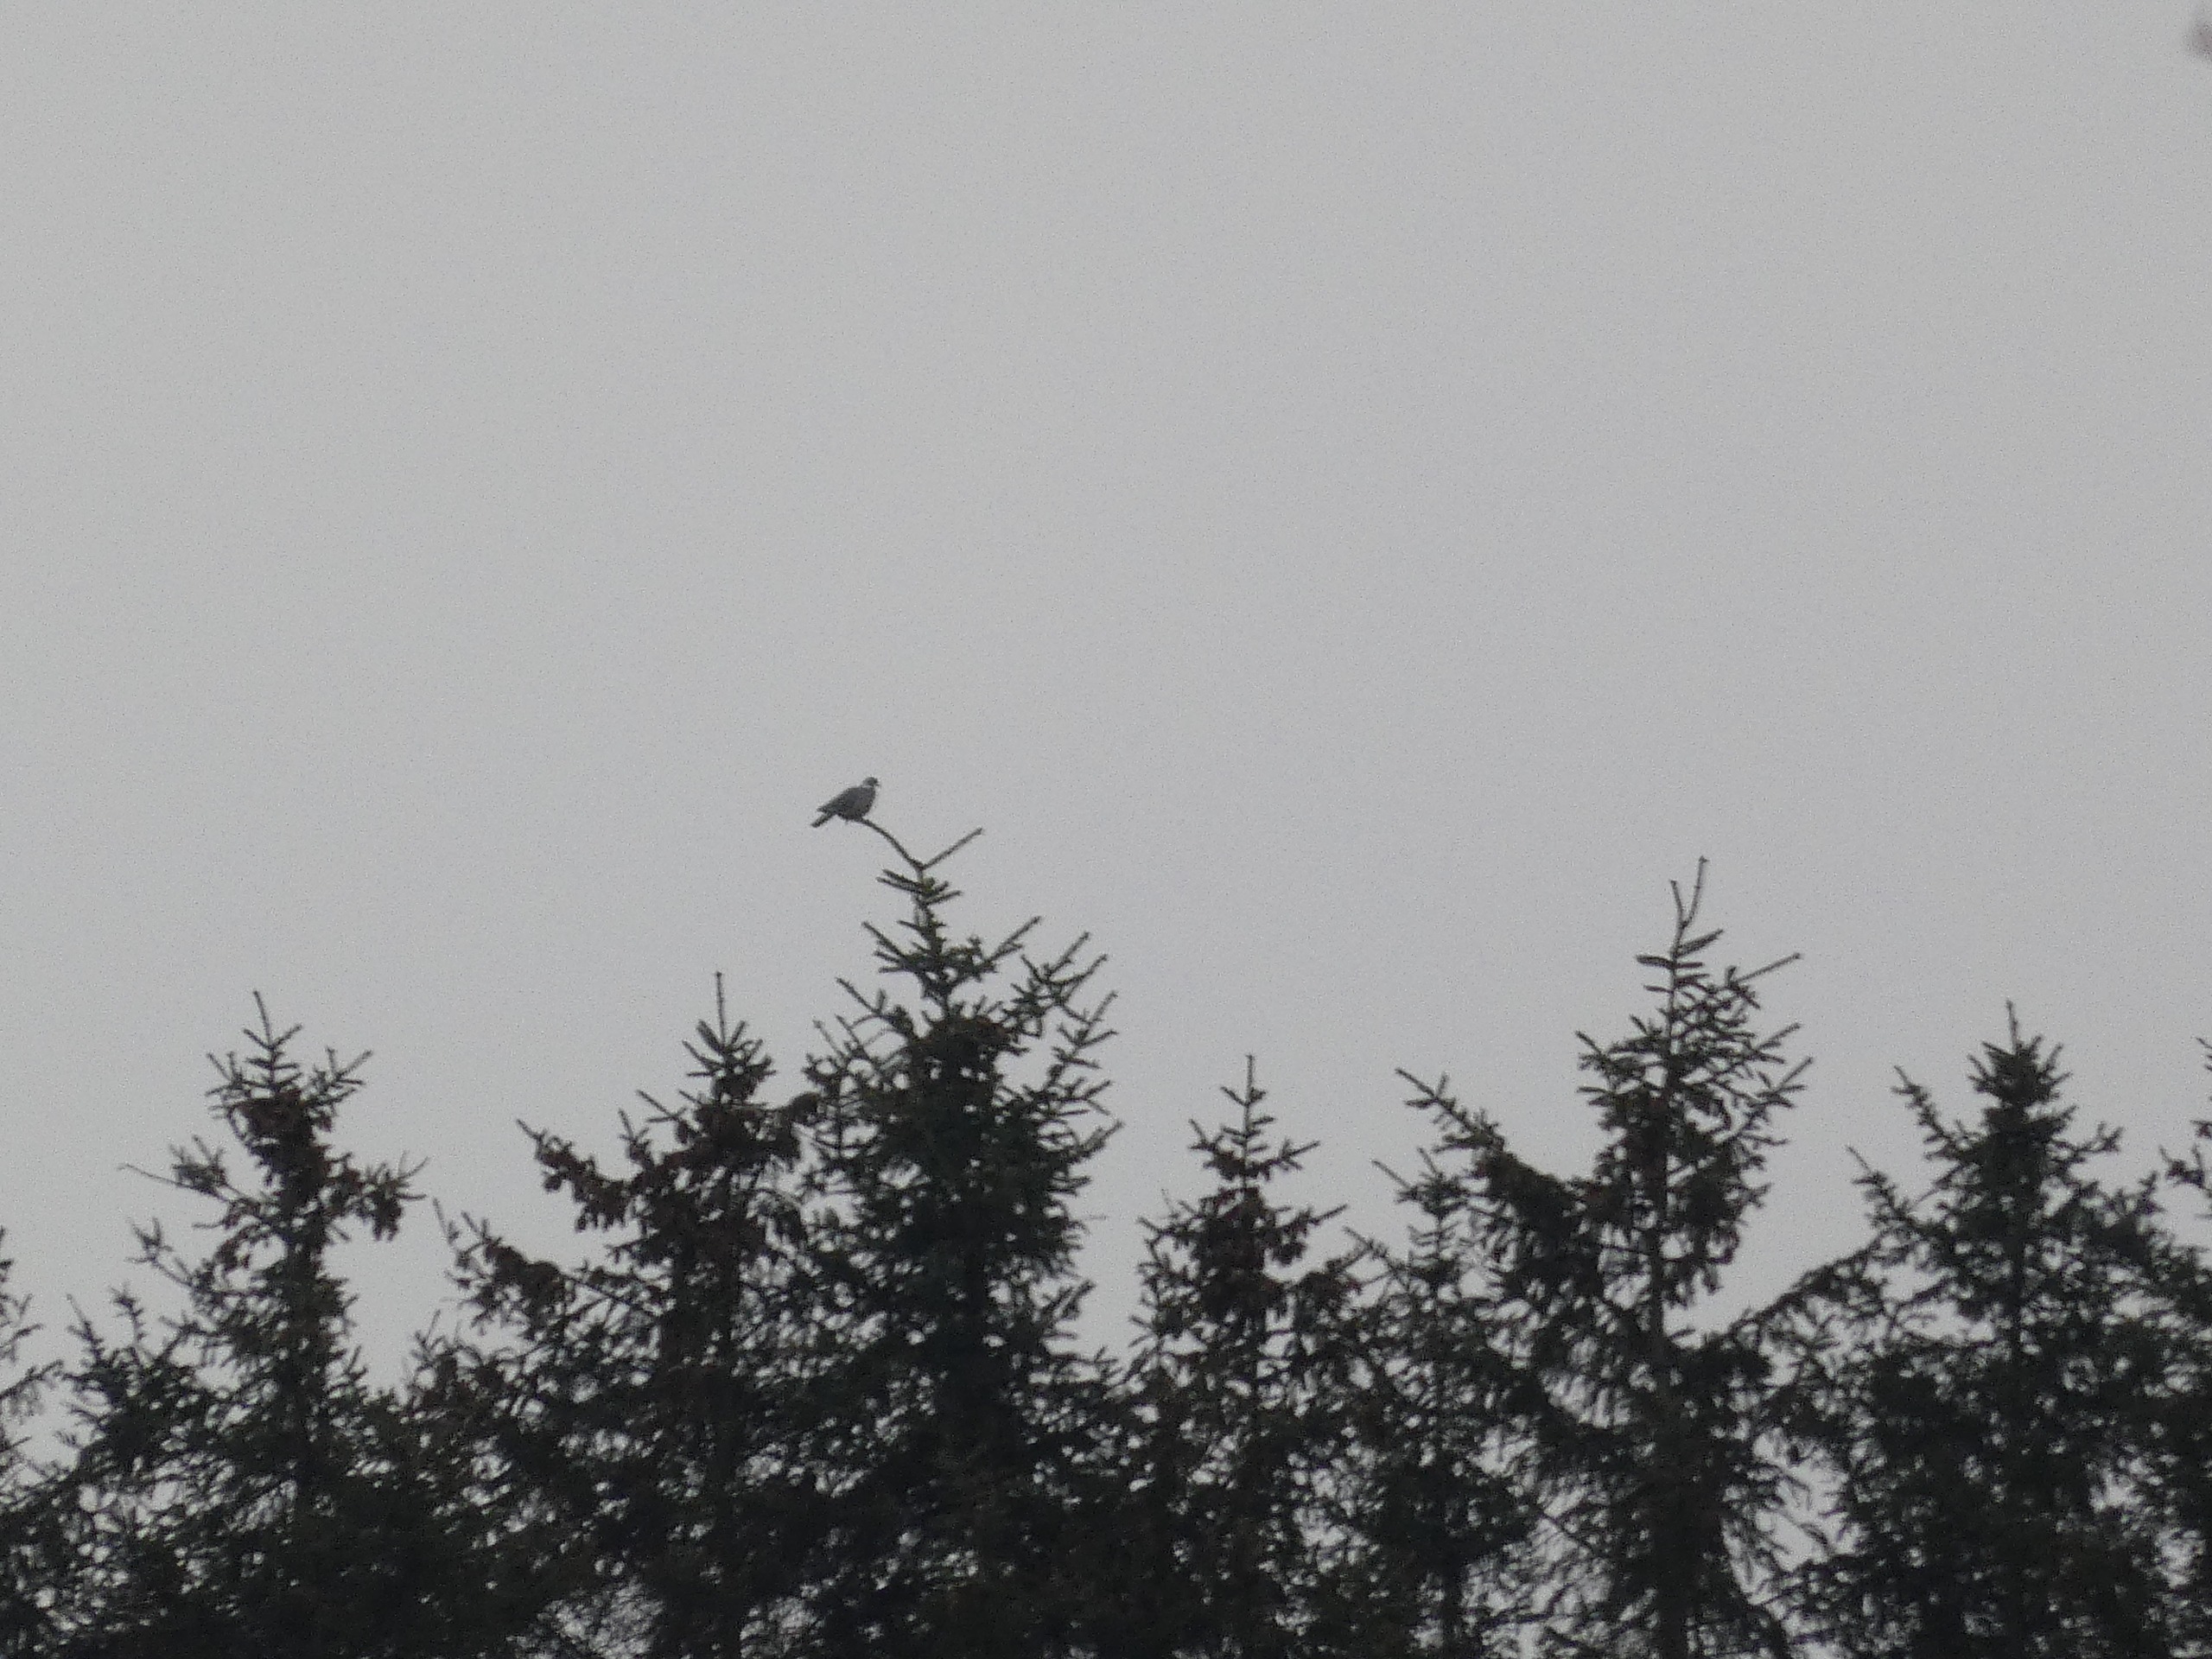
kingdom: Animalia
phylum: Chordata
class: Aves
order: Columbiformes
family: Columbidae
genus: Columba
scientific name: Columba palumbus
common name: Ringdue
